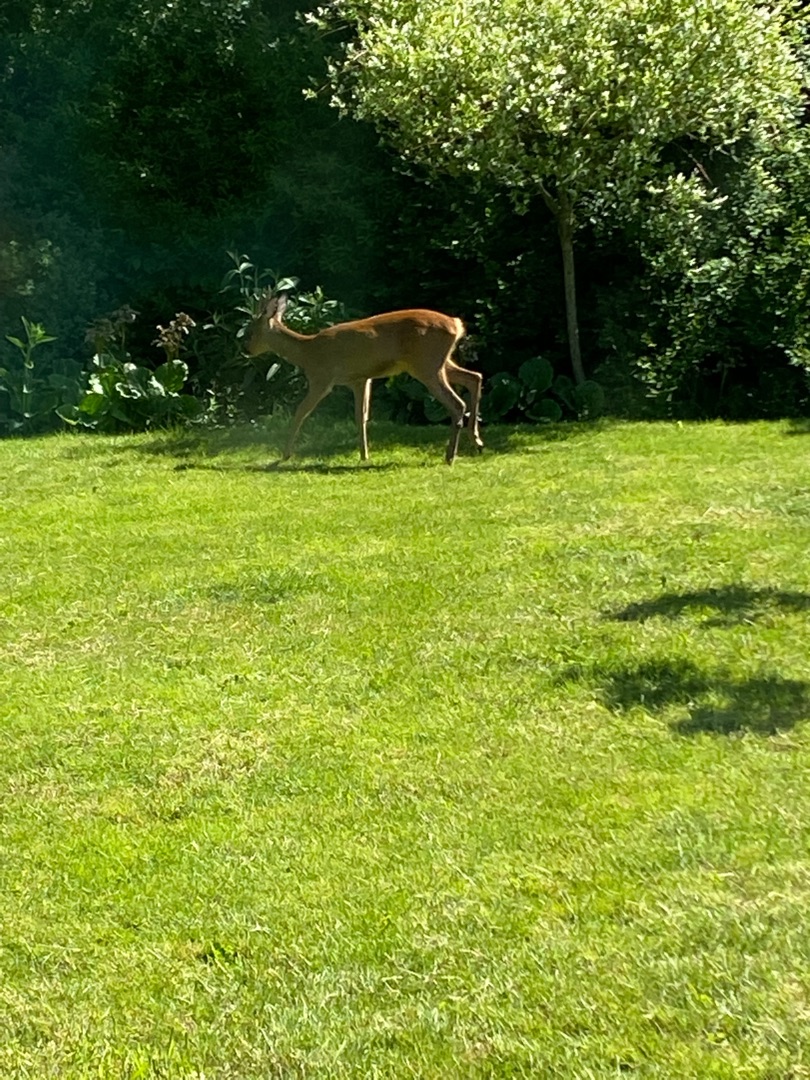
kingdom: Animalia
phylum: Chordata
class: Mammalia
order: Artiodactyla
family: Cervidae
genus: Capreolus
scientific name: Capreolus capreolus
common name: Rådyr
